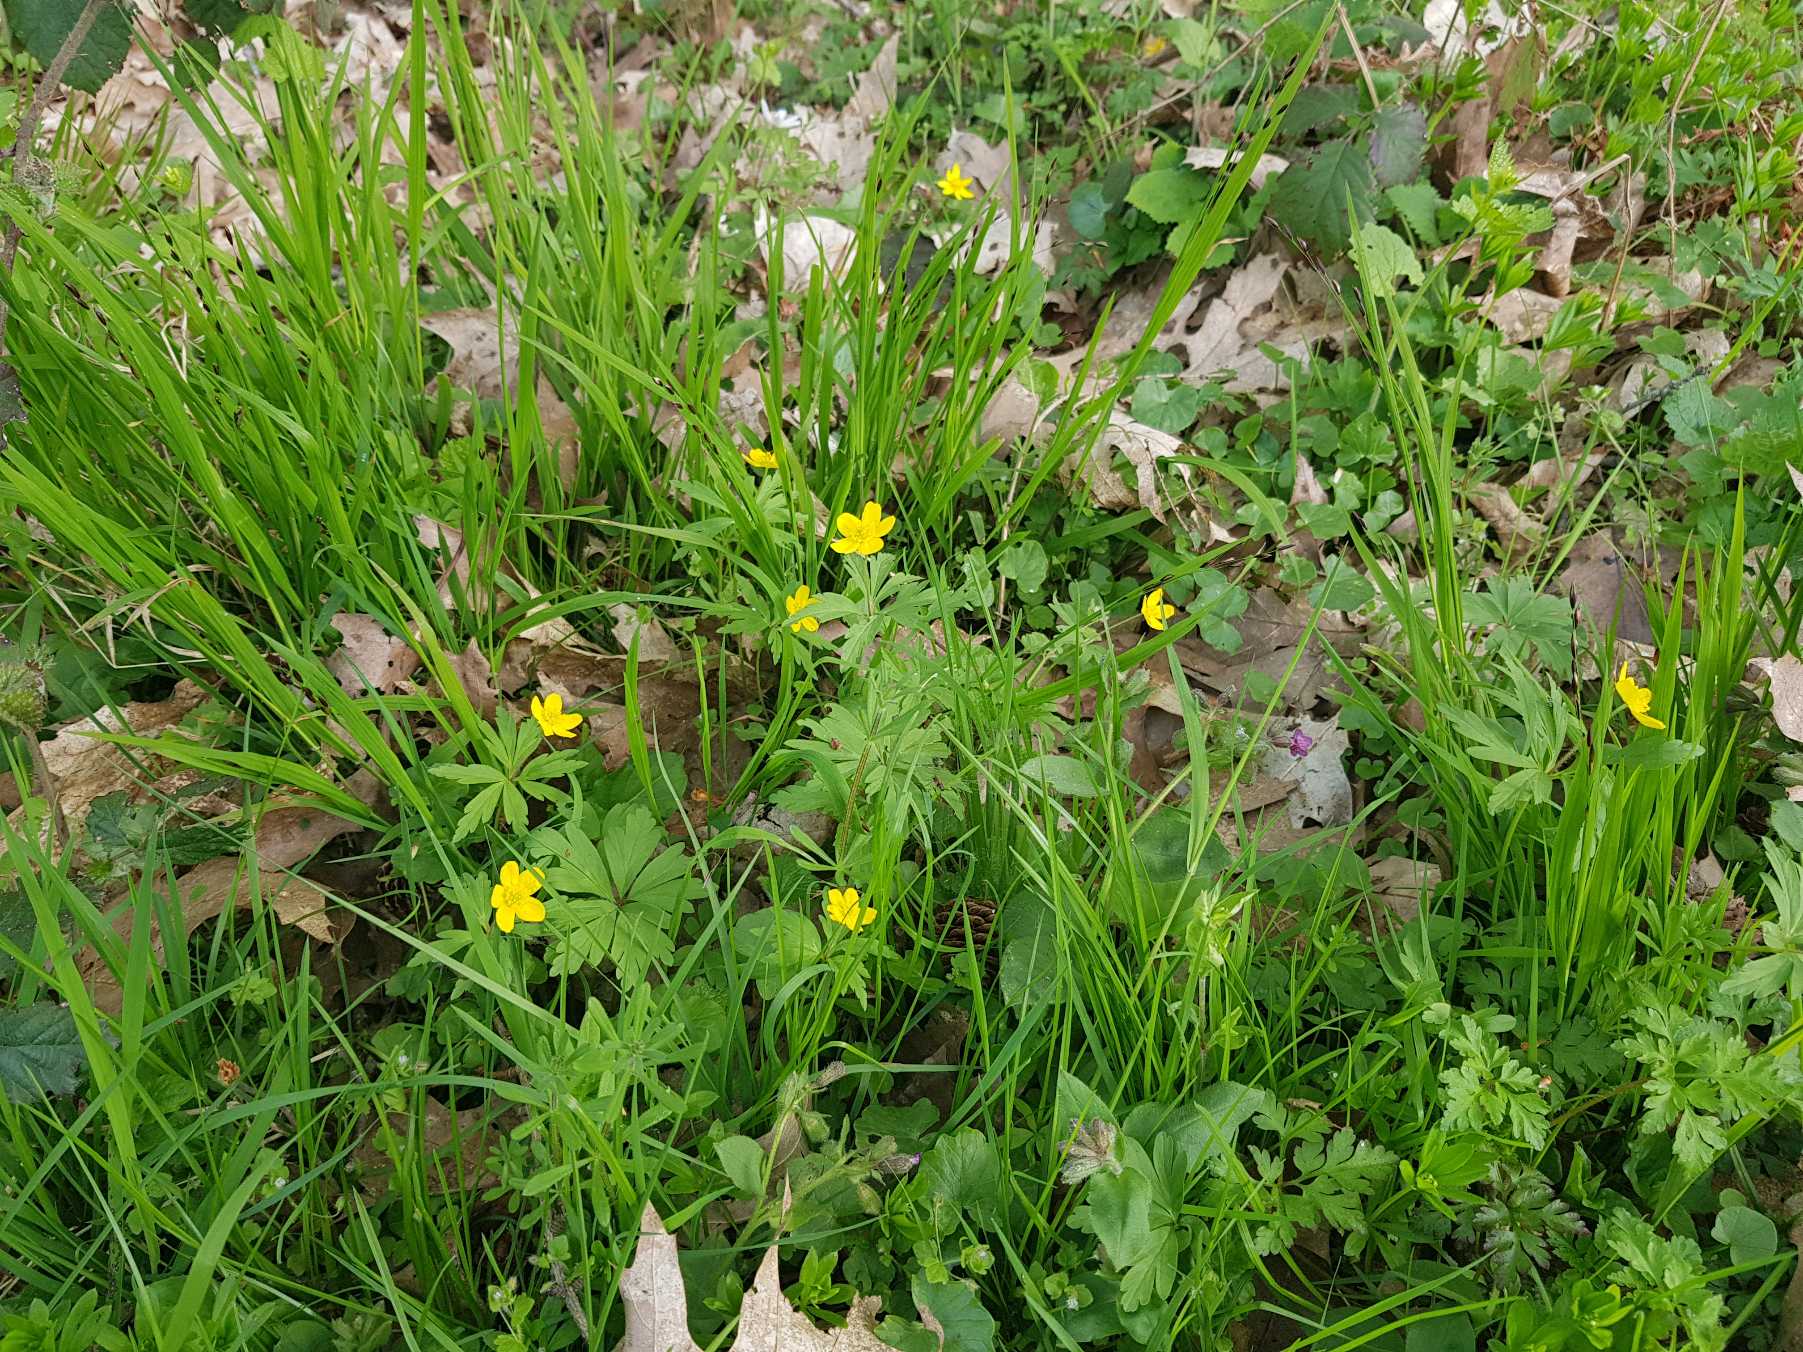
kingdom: Plantae
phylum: Tracheophyta
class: Magnoliopsida
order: Ranunculales
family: Ranunculaceae
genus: Anemone
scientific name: Anemone ranunculoides
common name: Gul anemone
